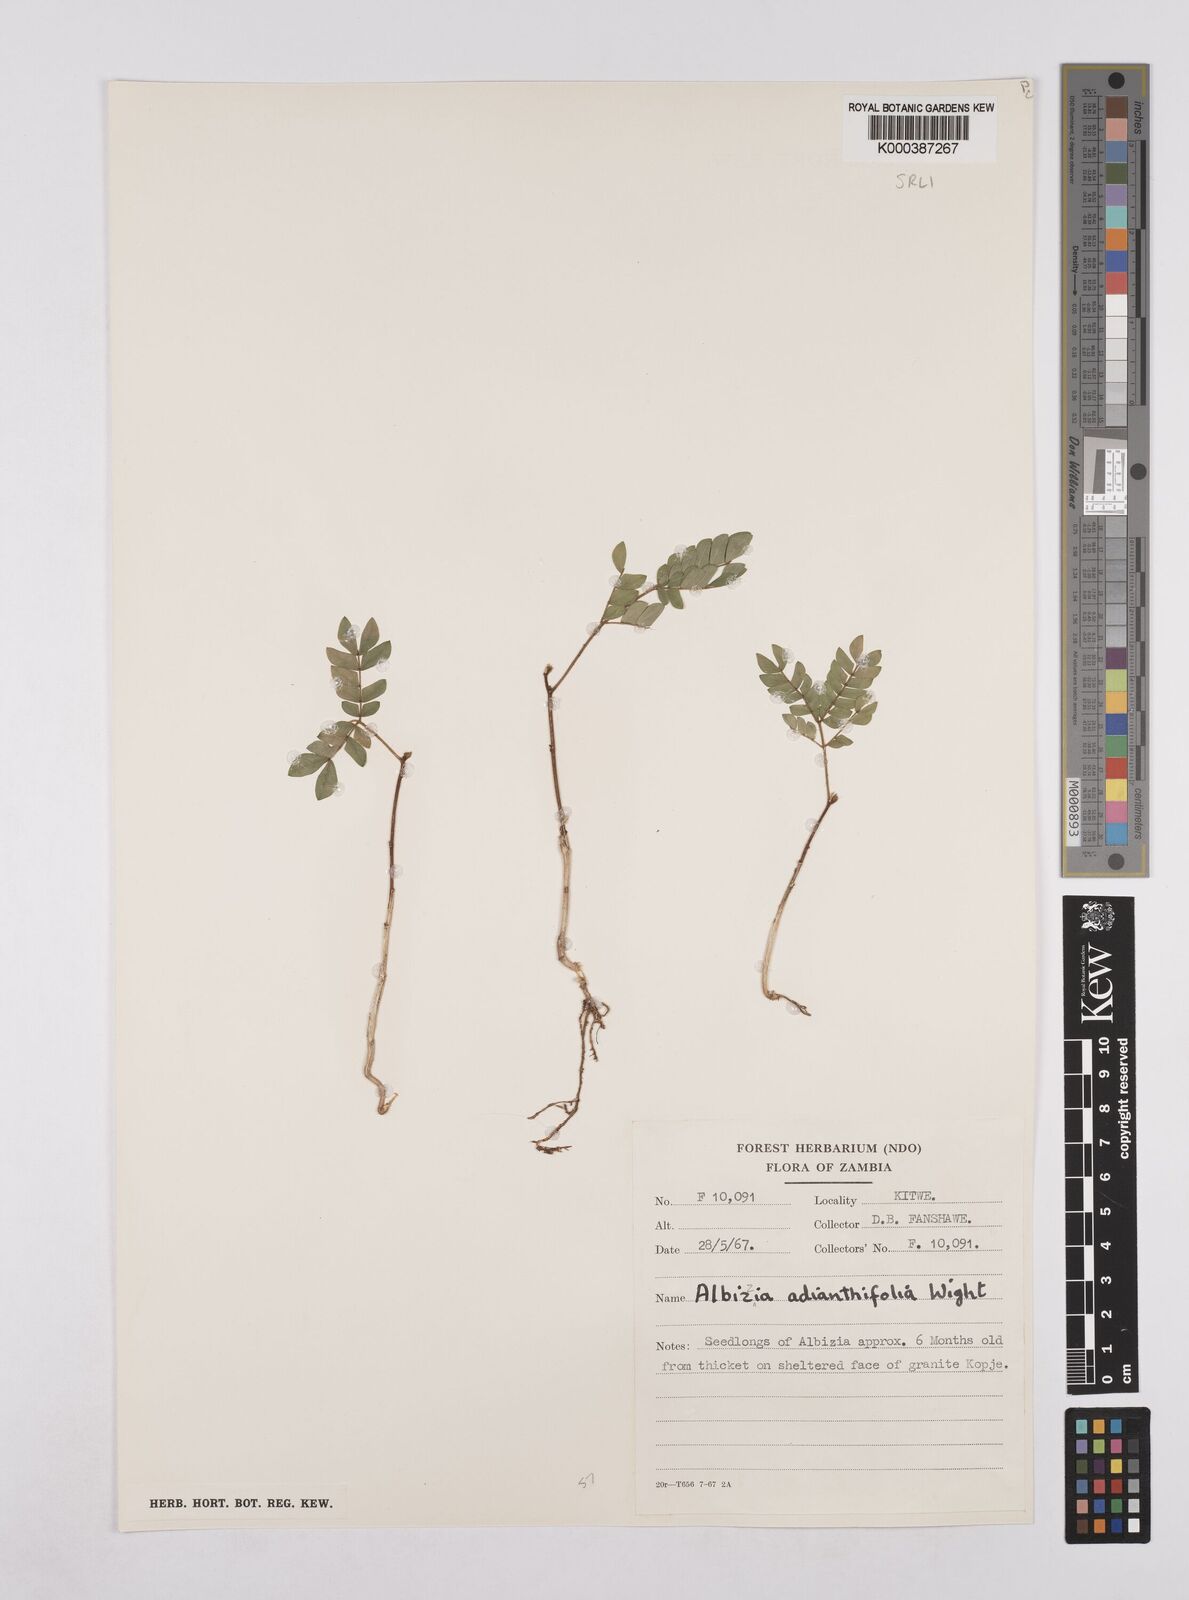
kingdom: Plantae
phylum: Tracheophyta
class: Magnoliopsida
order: Fabales
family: Fabaceae
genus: Albizia
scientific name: Albizia adianthifolia
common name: West african albizia
